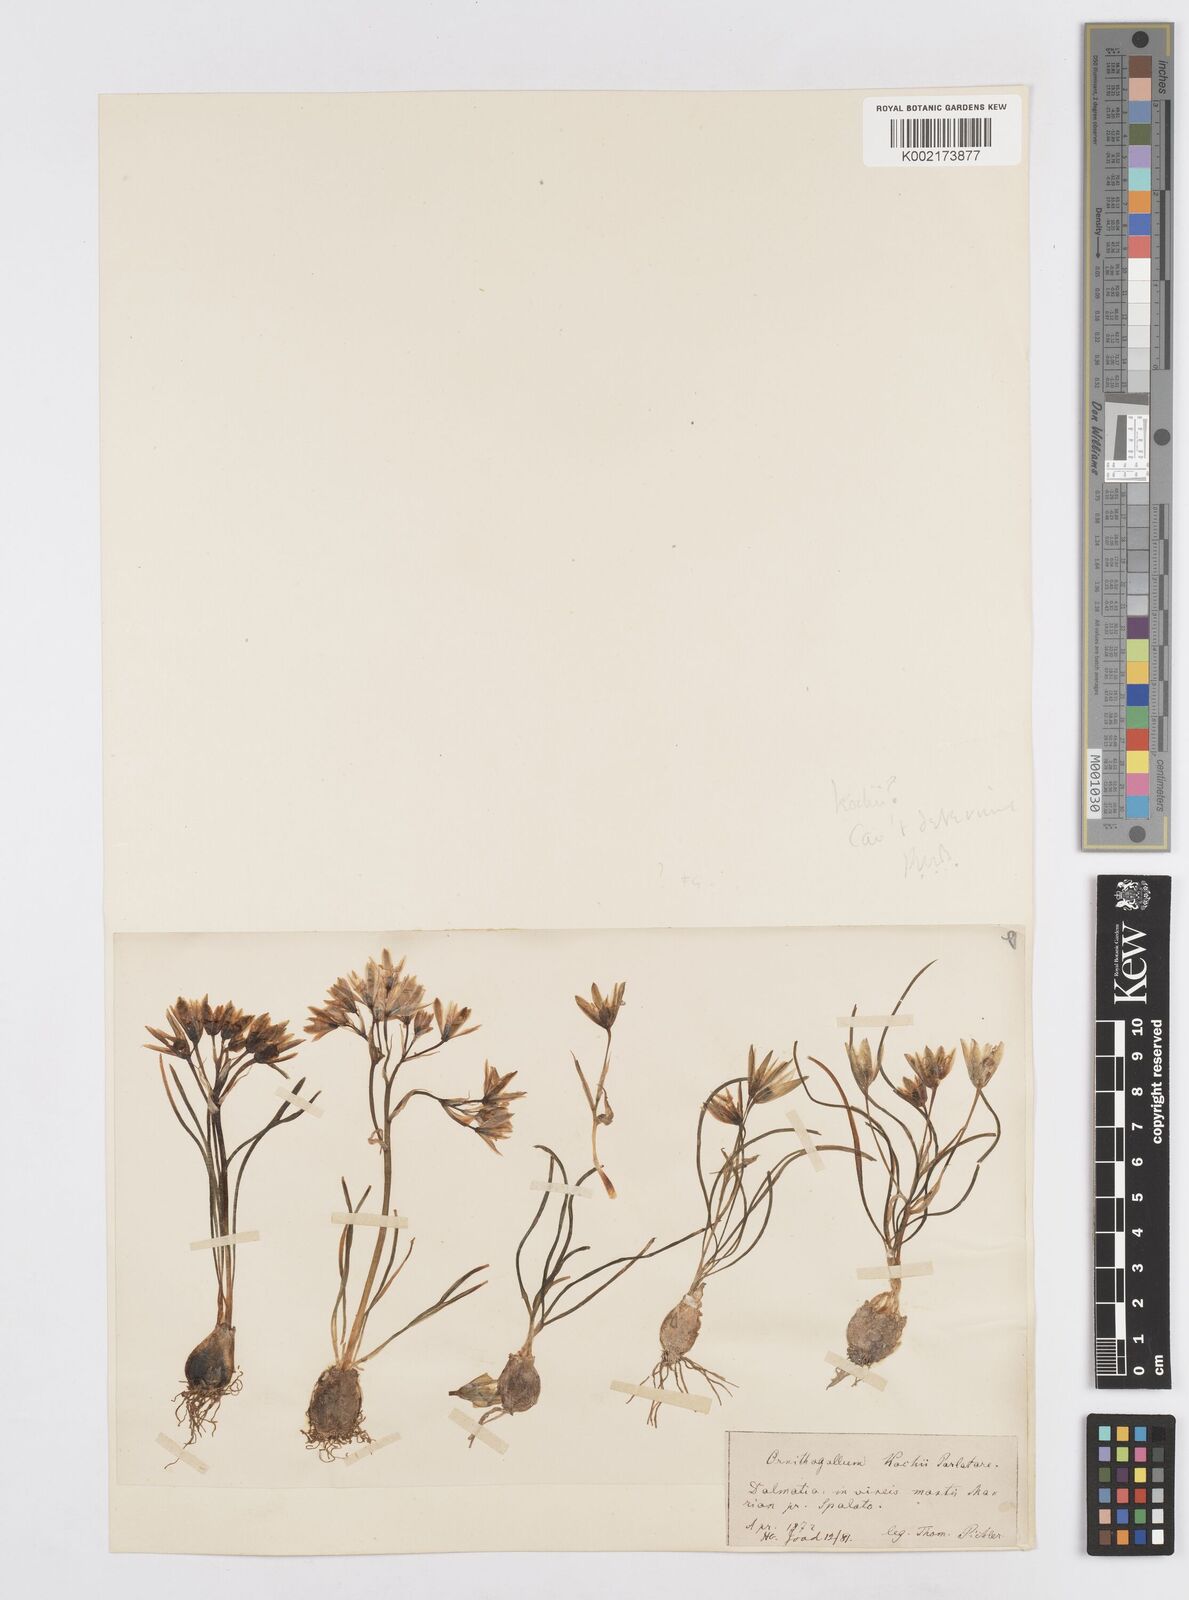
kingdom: Plantae
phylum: Tracheophyta
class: Liliopsida
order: Asparagales
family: Asparagaceae
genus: Ornithogalum
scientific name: Ornithogalum orthophyllum
